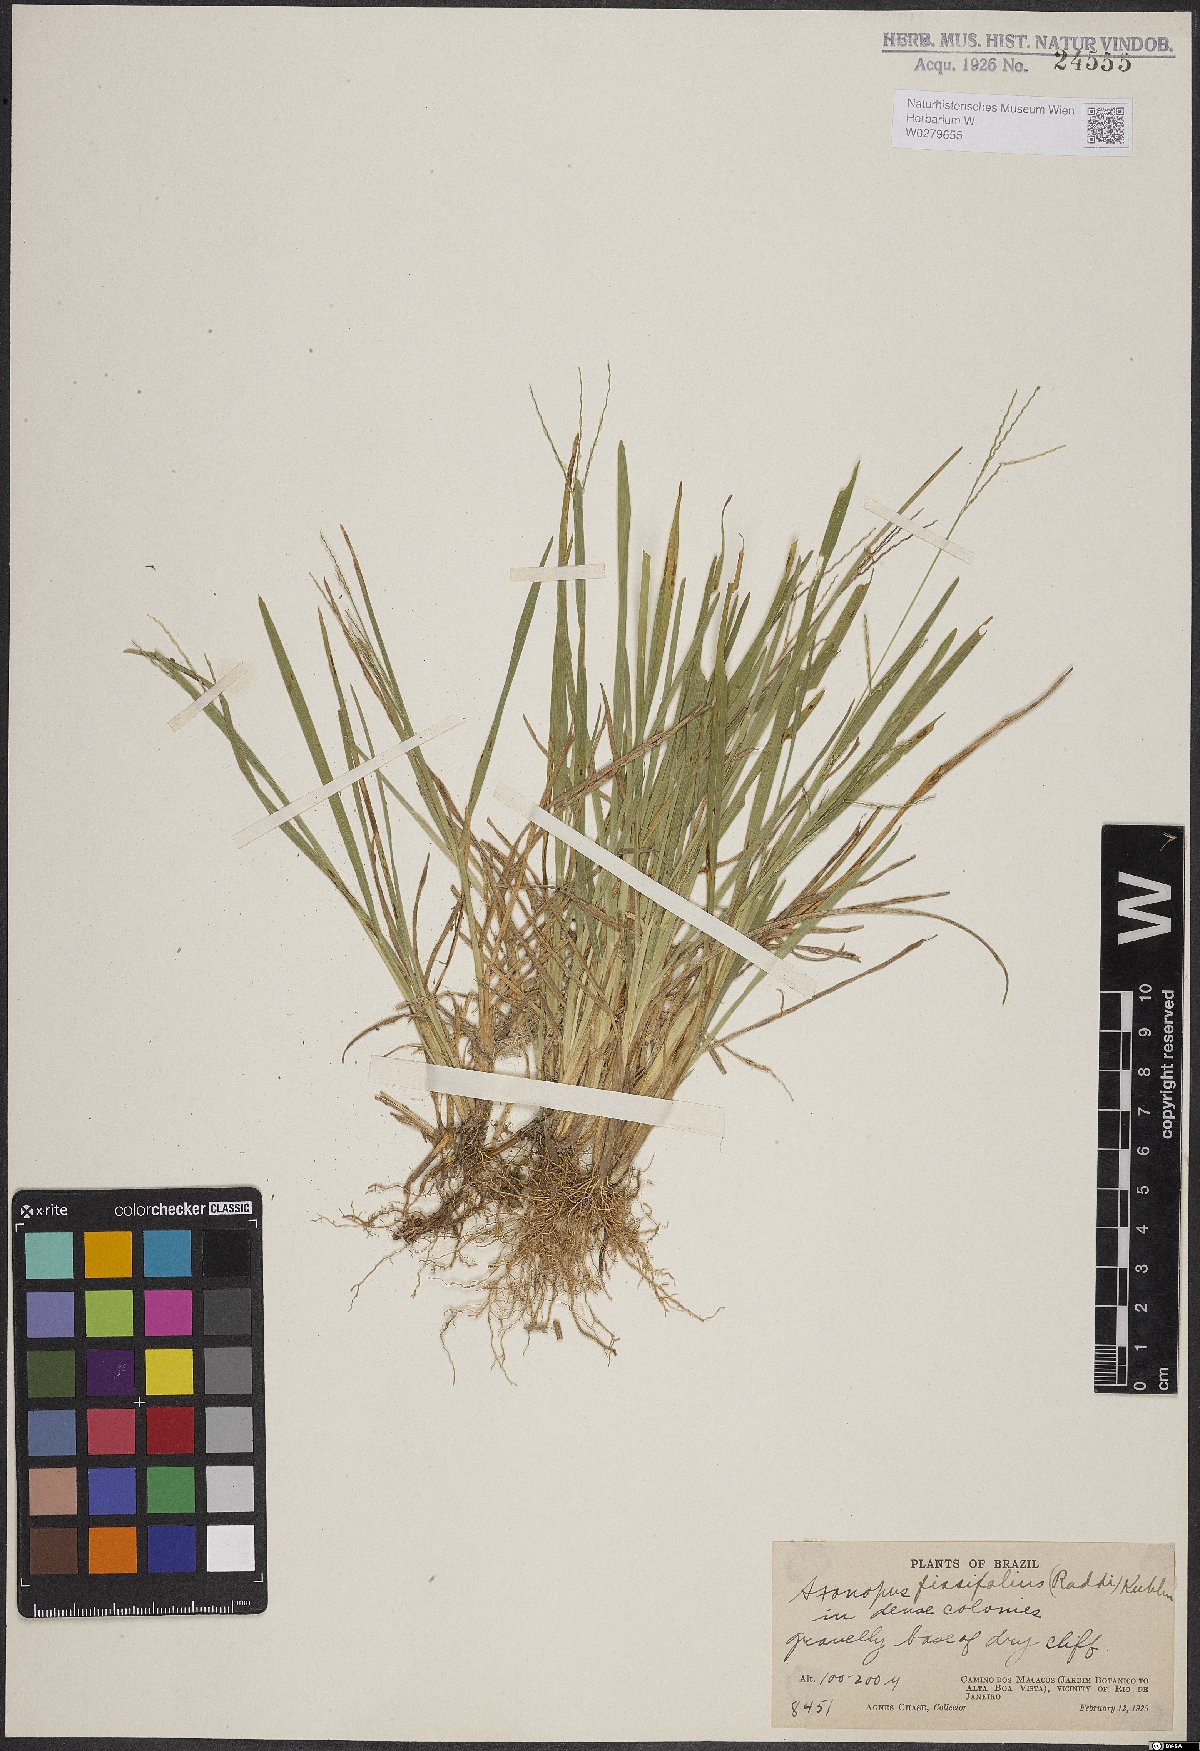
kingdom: Plantae
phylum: Tracheophyta
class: Liliopsida
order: Poales
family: Poaceae
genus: Axonopus
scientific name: Axonopus fissifolius
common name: Common carpetgrass
